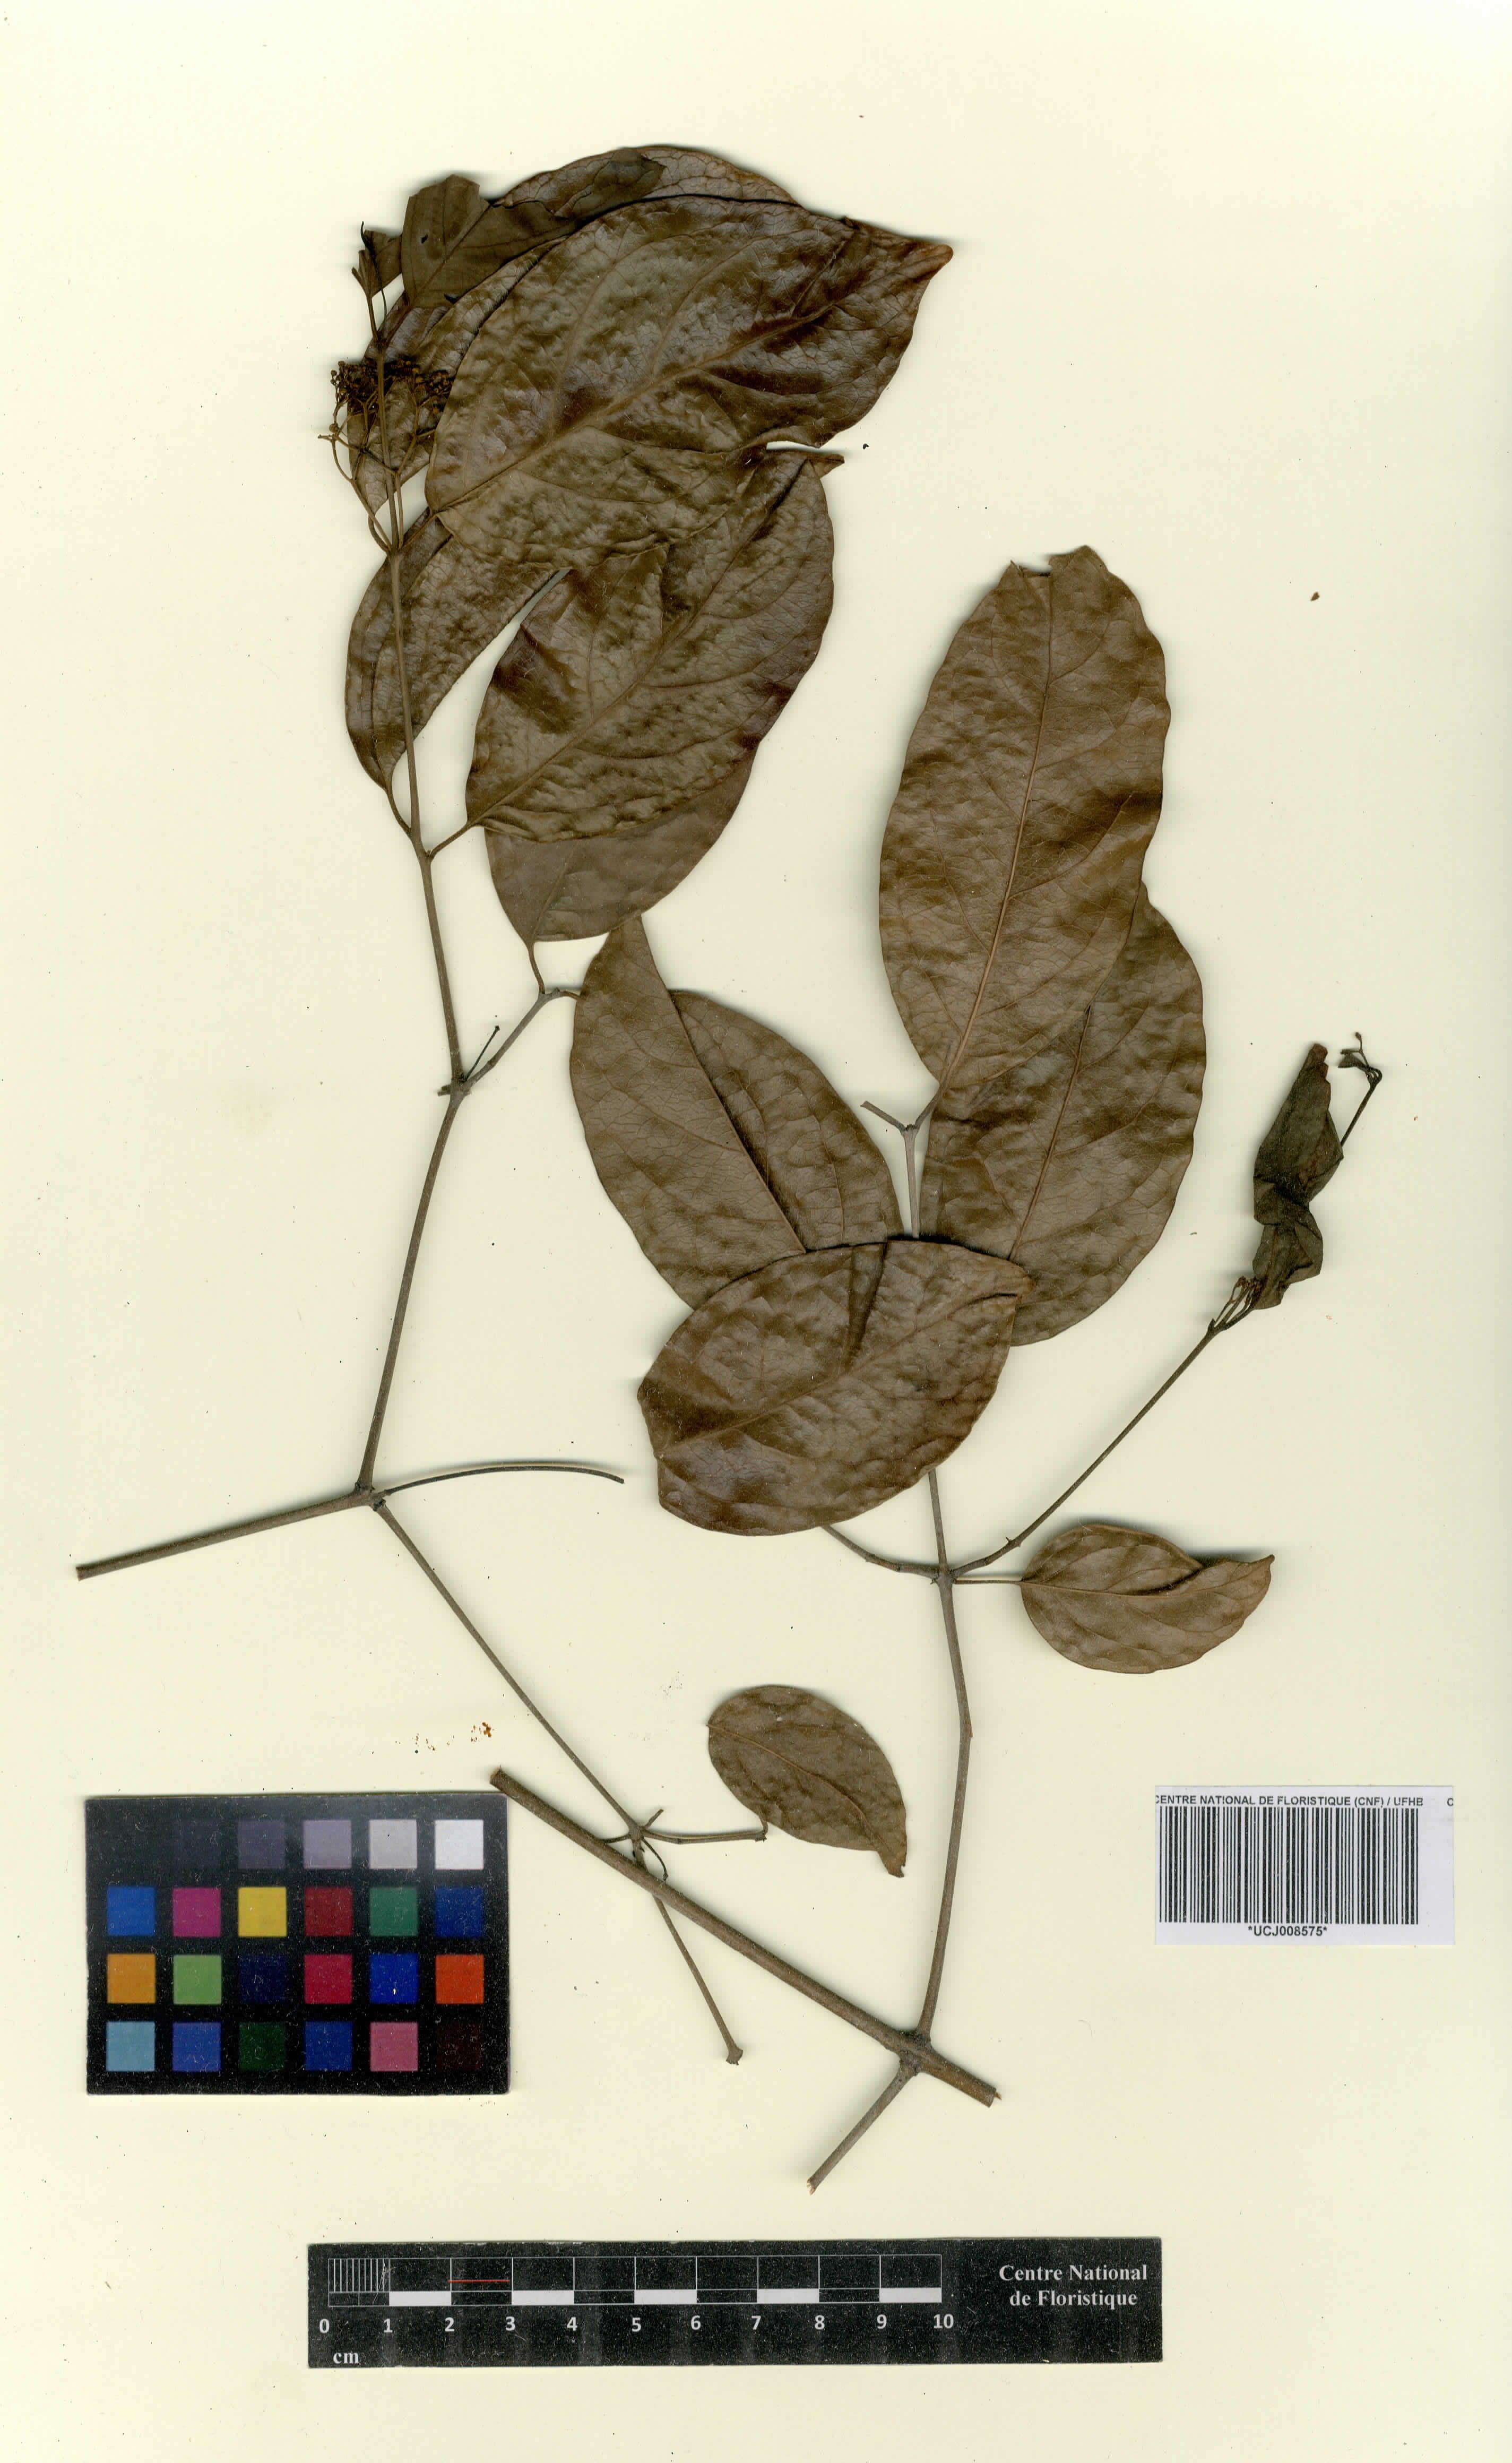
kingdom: Plantae
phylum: Tracheophyta
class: Magnoliopsida
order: Celastrales
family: Celastraceae
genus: Simicratea
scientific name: Simicratea welwitschii
